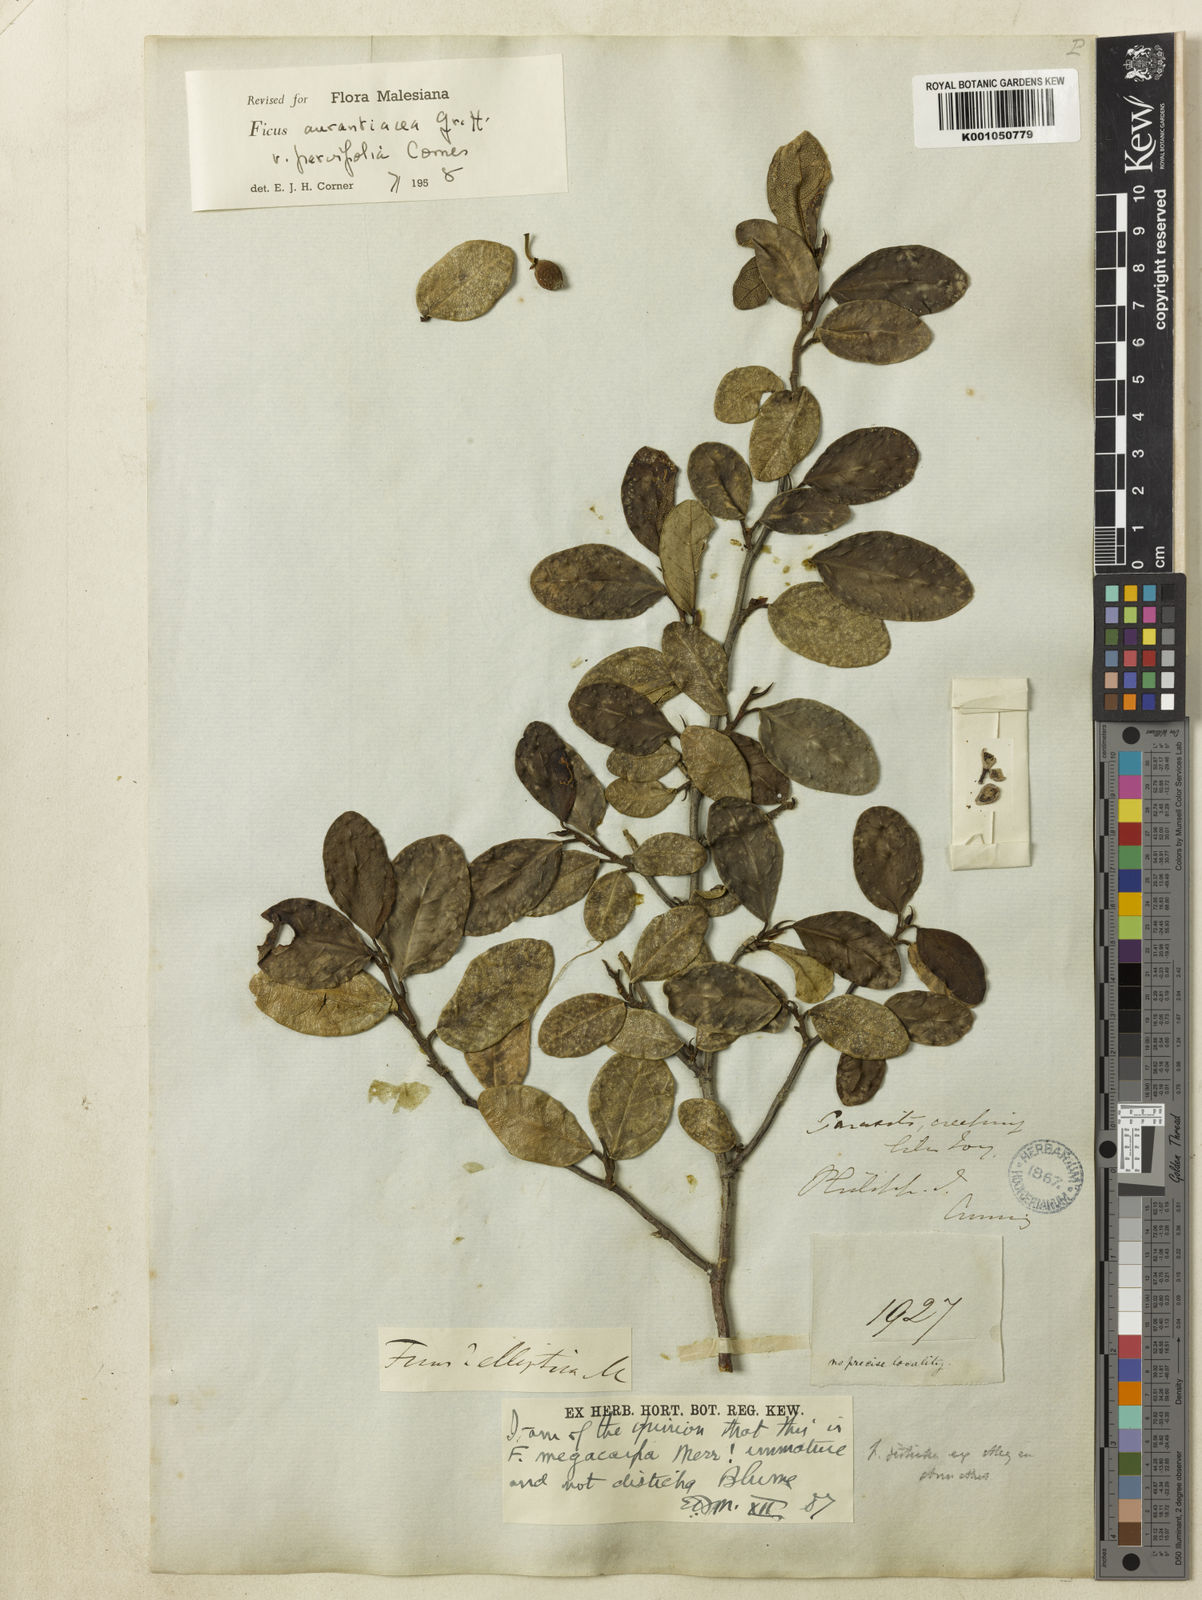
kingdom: Plantae
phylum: Tracheophyta
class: Magnoliopsida
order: Rosales
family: Moraceae
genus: Ficus
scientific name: Ficus
